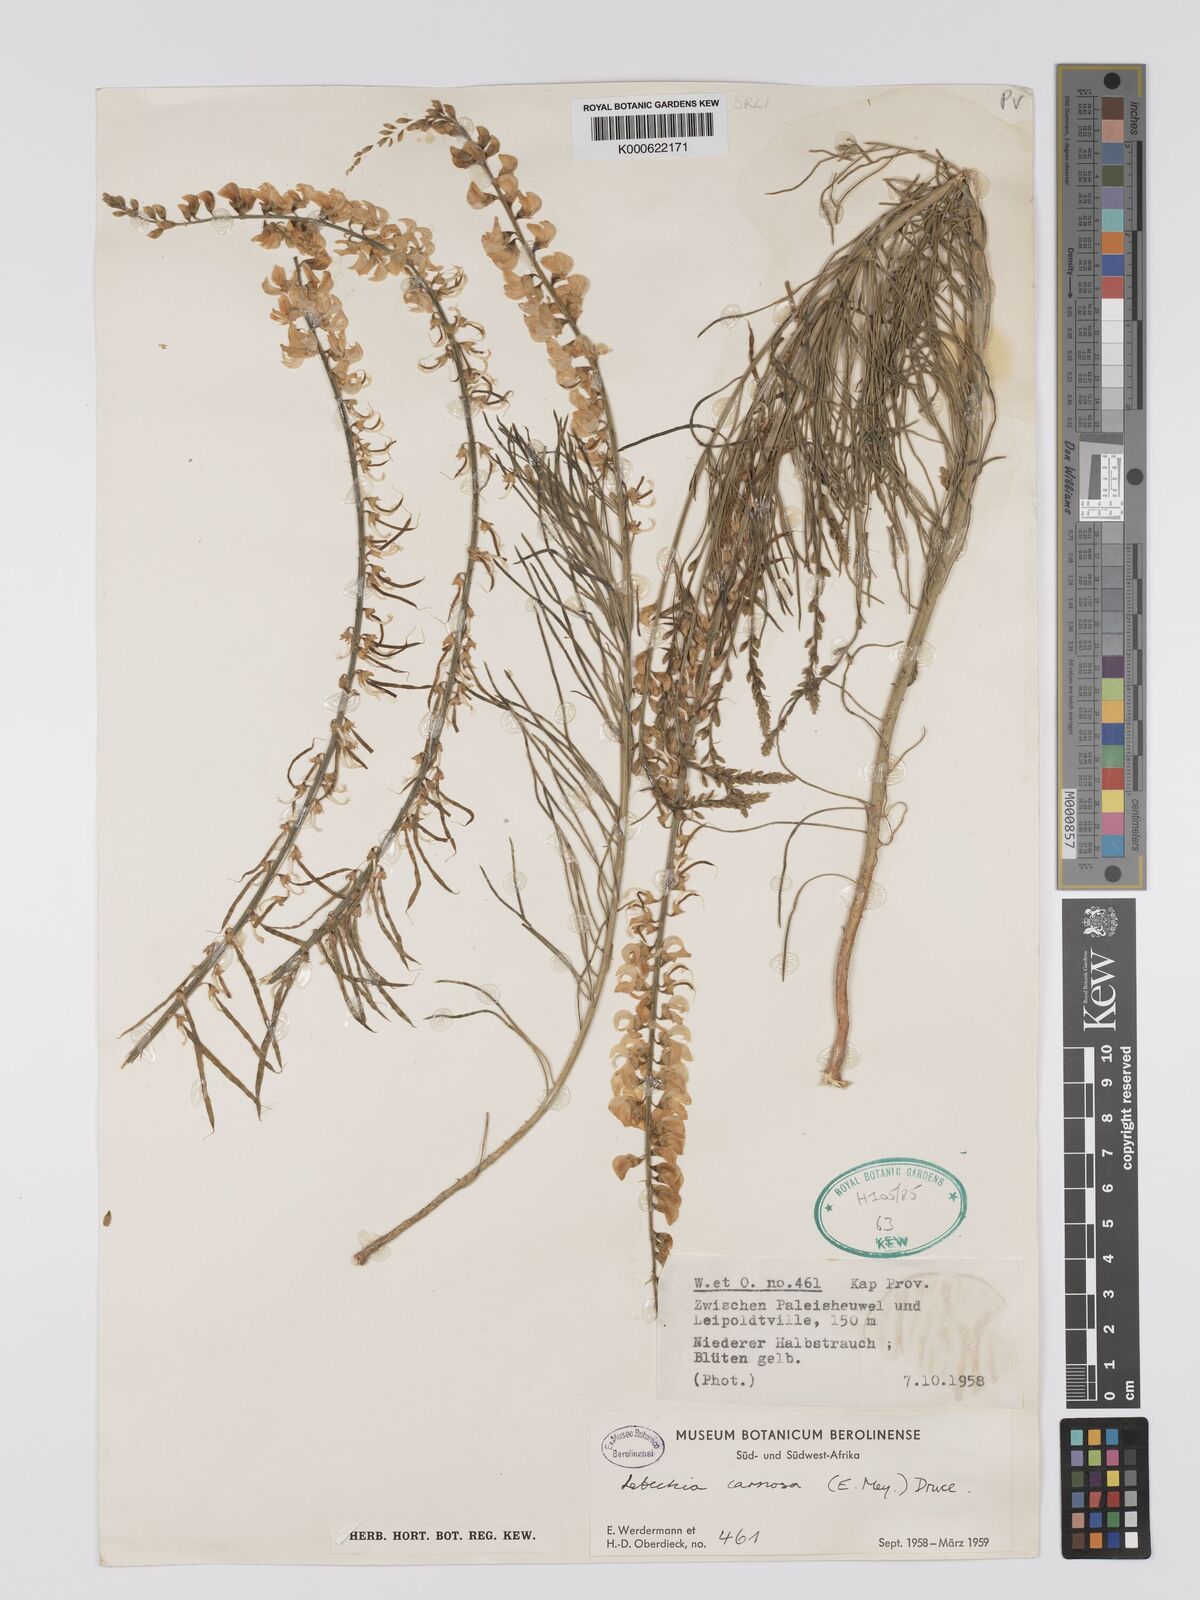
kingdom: Plantae
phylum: Tracheophyta
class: Magnoliopsida
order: Fabales
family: Fabaceae
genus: Lebeckia
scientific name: Lebeckia contaminata
